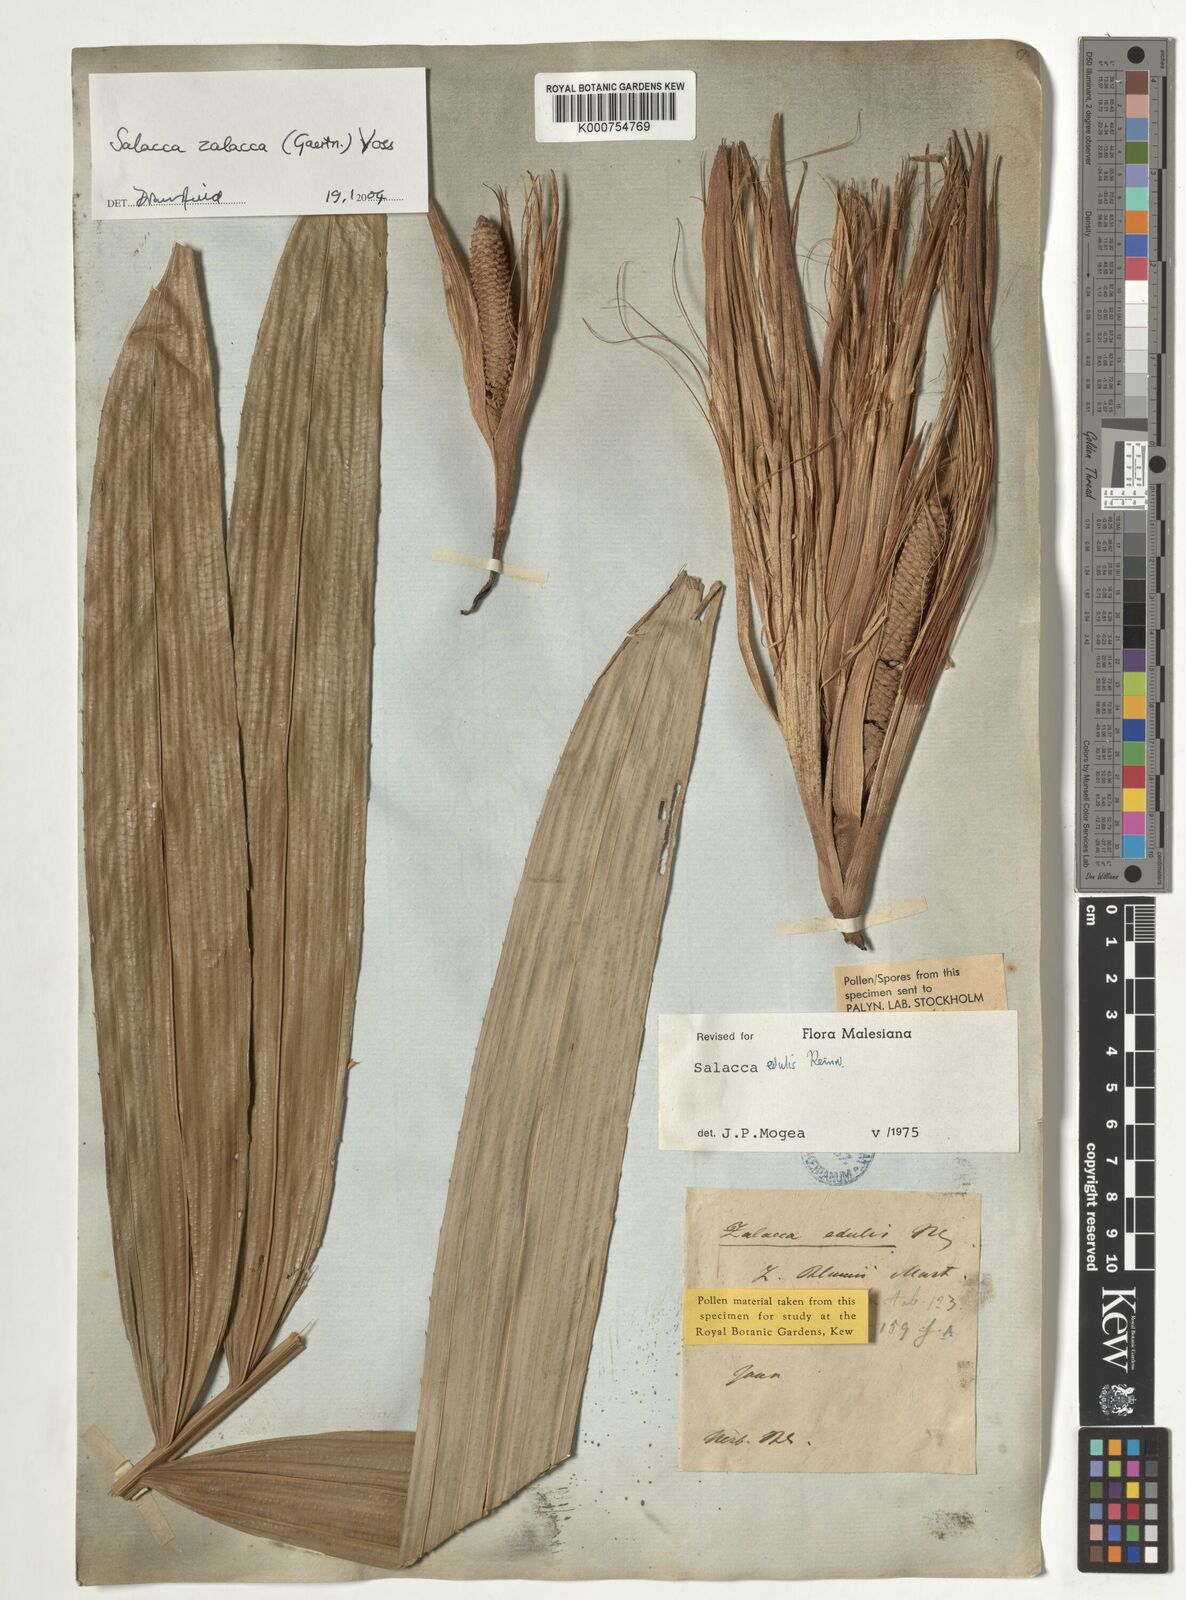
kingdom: Plantae
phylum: Tracheophyta
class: Liliopsida
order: Arecales
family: Arecaceae
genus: Salacca
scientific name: Salacca zalacca
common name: Salak
